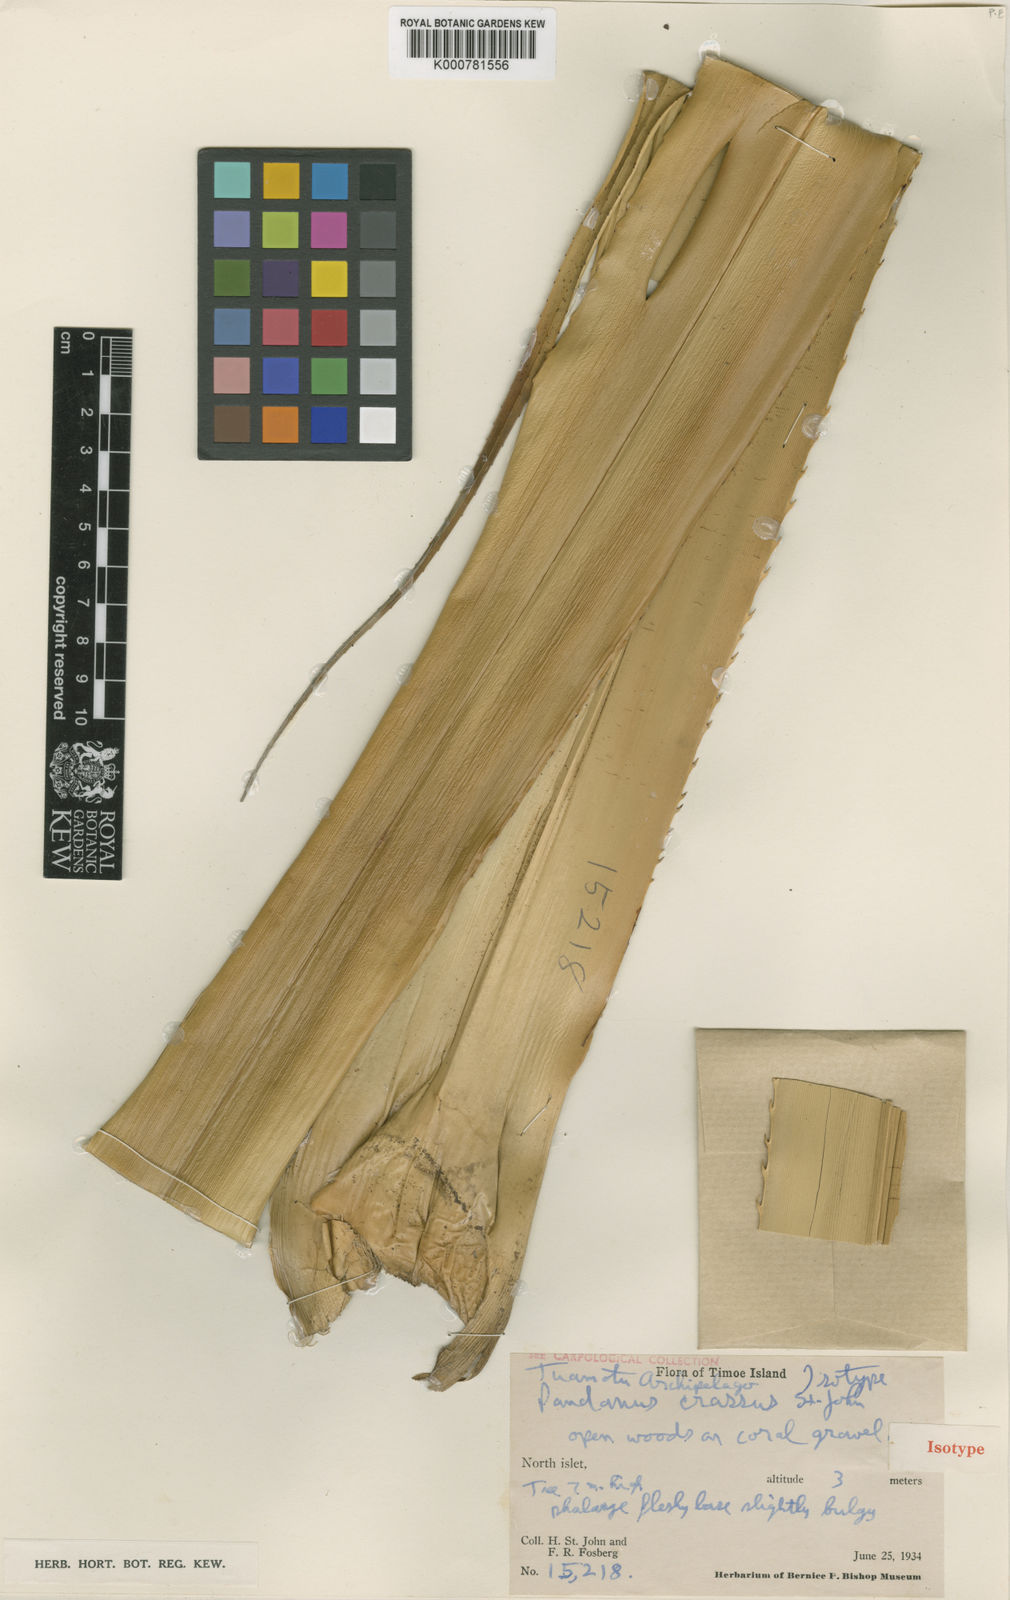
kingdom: Plantae
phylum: Tracheophyta
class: Liliopsida
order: Pandanales
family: Pandanaceae
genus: Pandanus
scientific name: Pandanus
